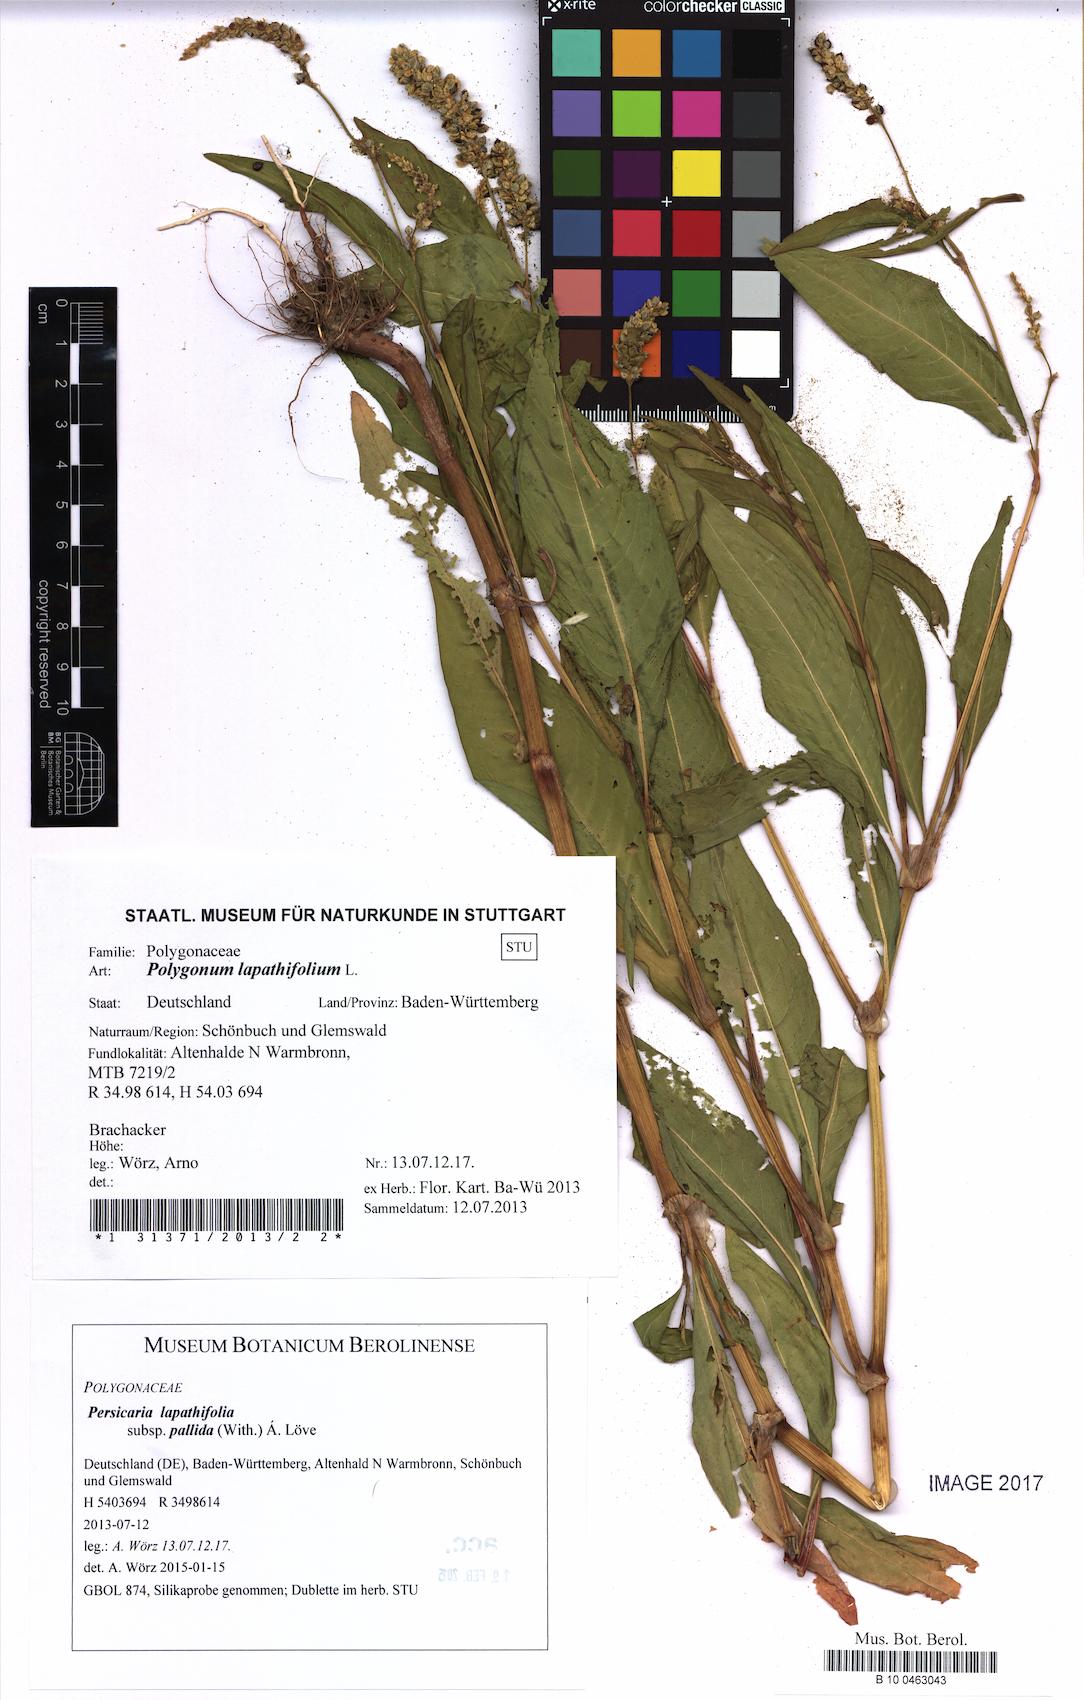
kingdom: Plantae
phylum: Tracheophyta
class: Magnoliopsida
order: Caryophyllales
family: Polygonaceae
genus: Persicaria
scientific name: Persicaria lapathifolia
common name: Curlytop knotweed
